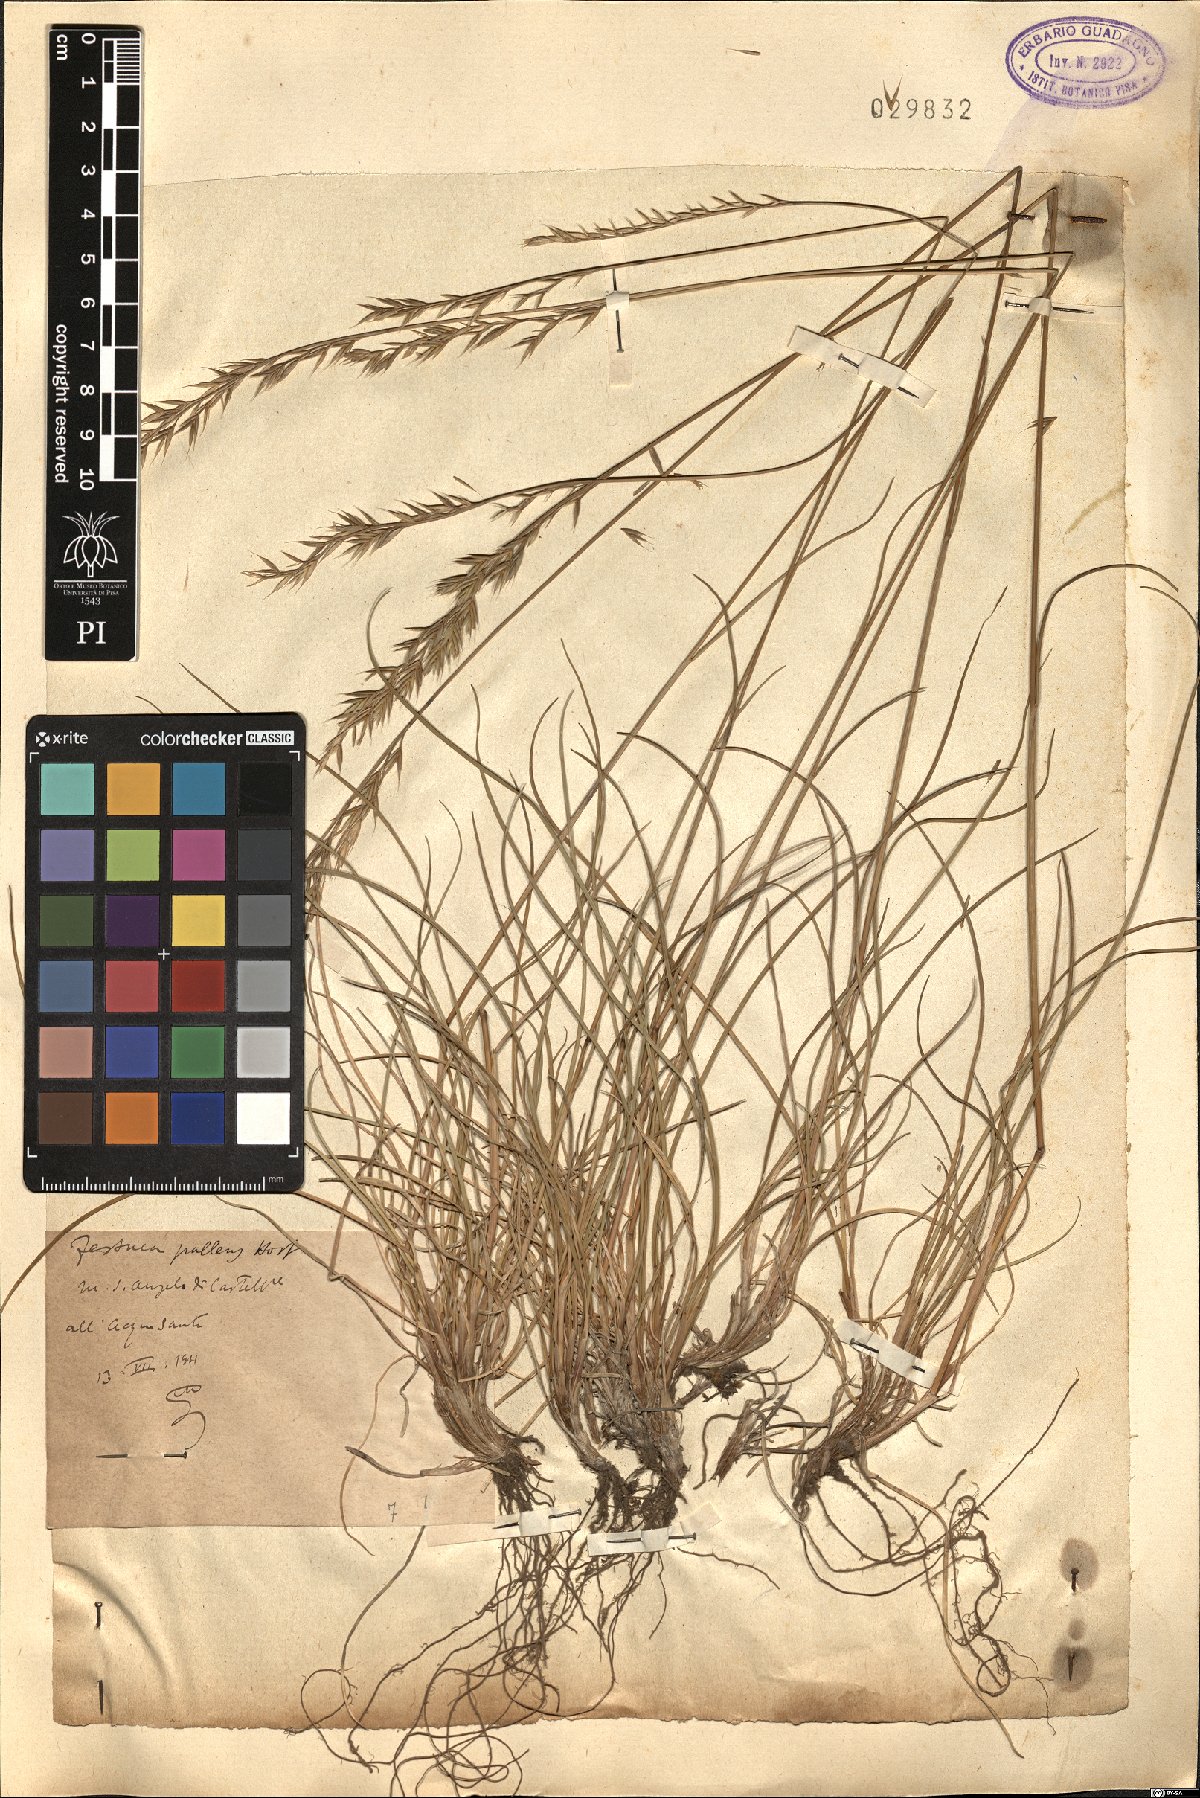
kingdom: Plantae
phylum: Tracheophyta
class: Liliopsida
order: Poales
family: Poaceae
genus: Festuca
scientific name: Festuca circummediterranea
